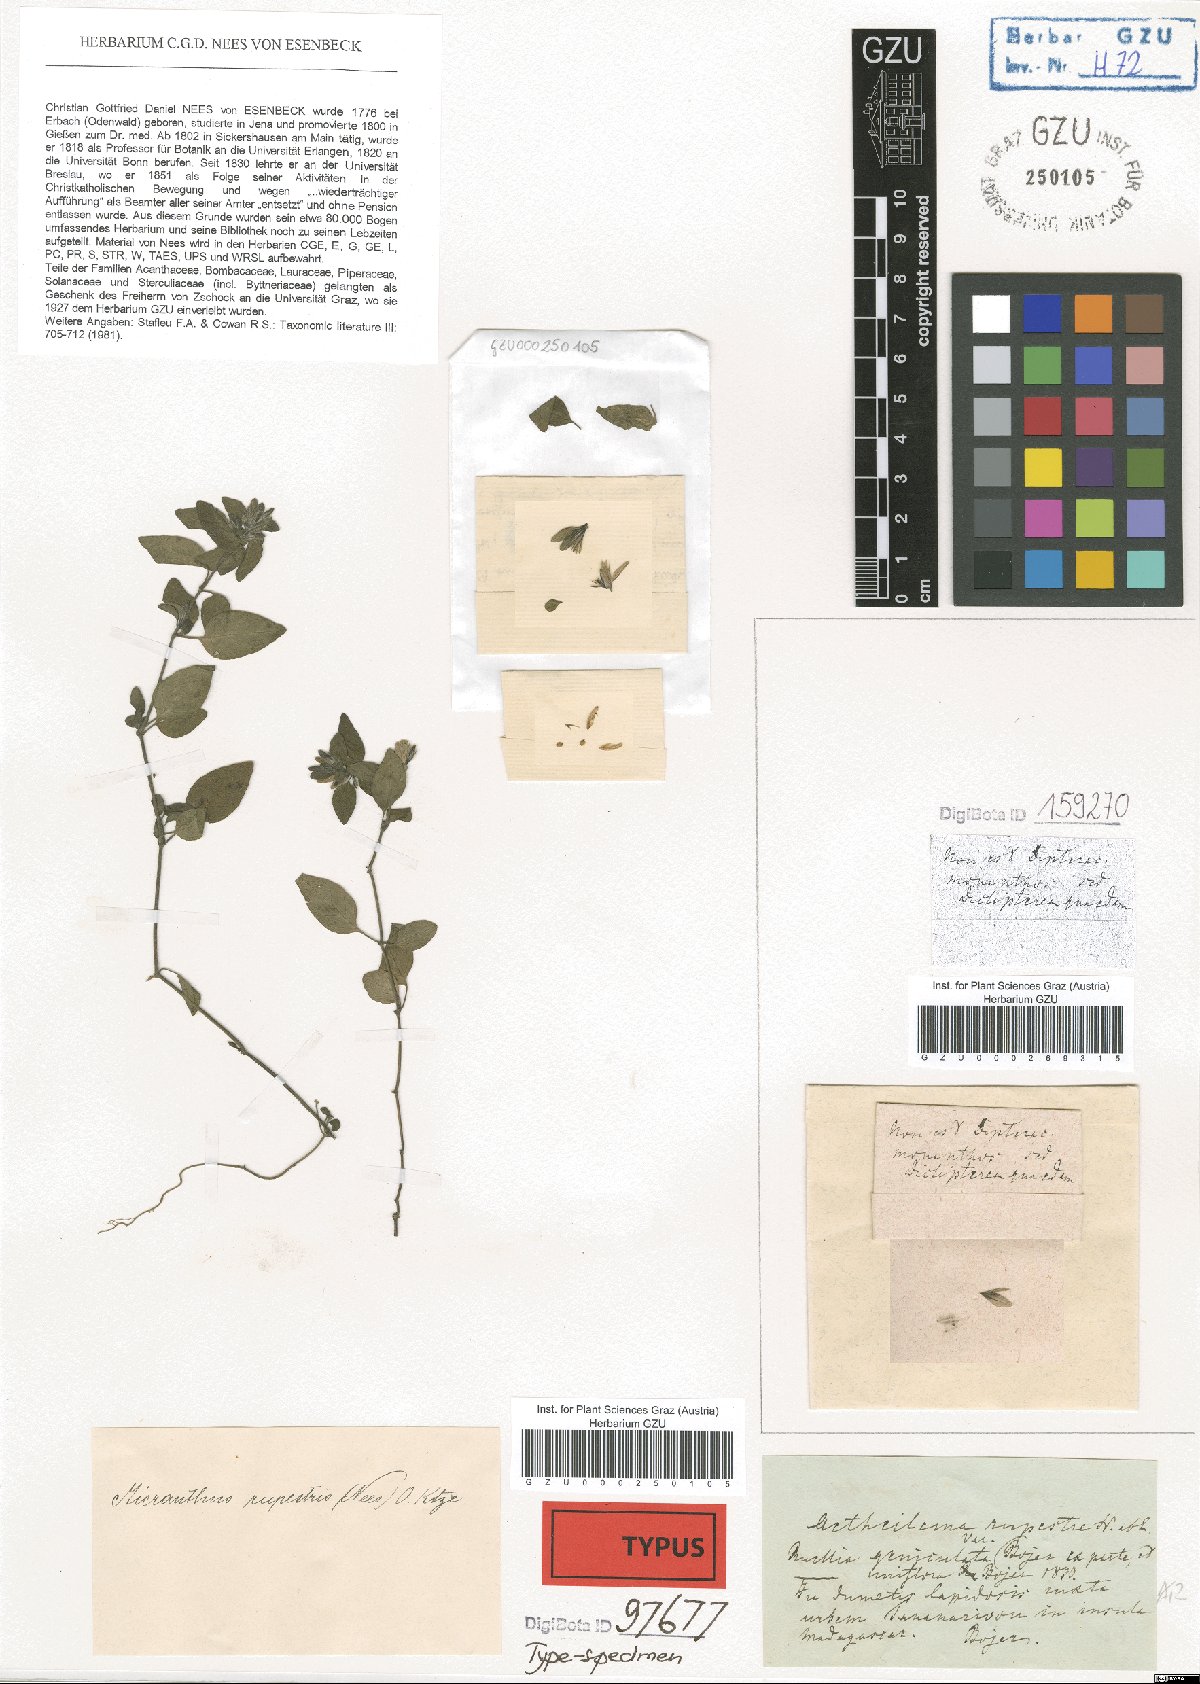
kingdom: Plantae
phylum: Tracheophyta
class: Magnoliopsida
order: Lamiales
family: Acanthaceae
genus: Phaulopsis
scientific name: Phaulopsis rupestris
